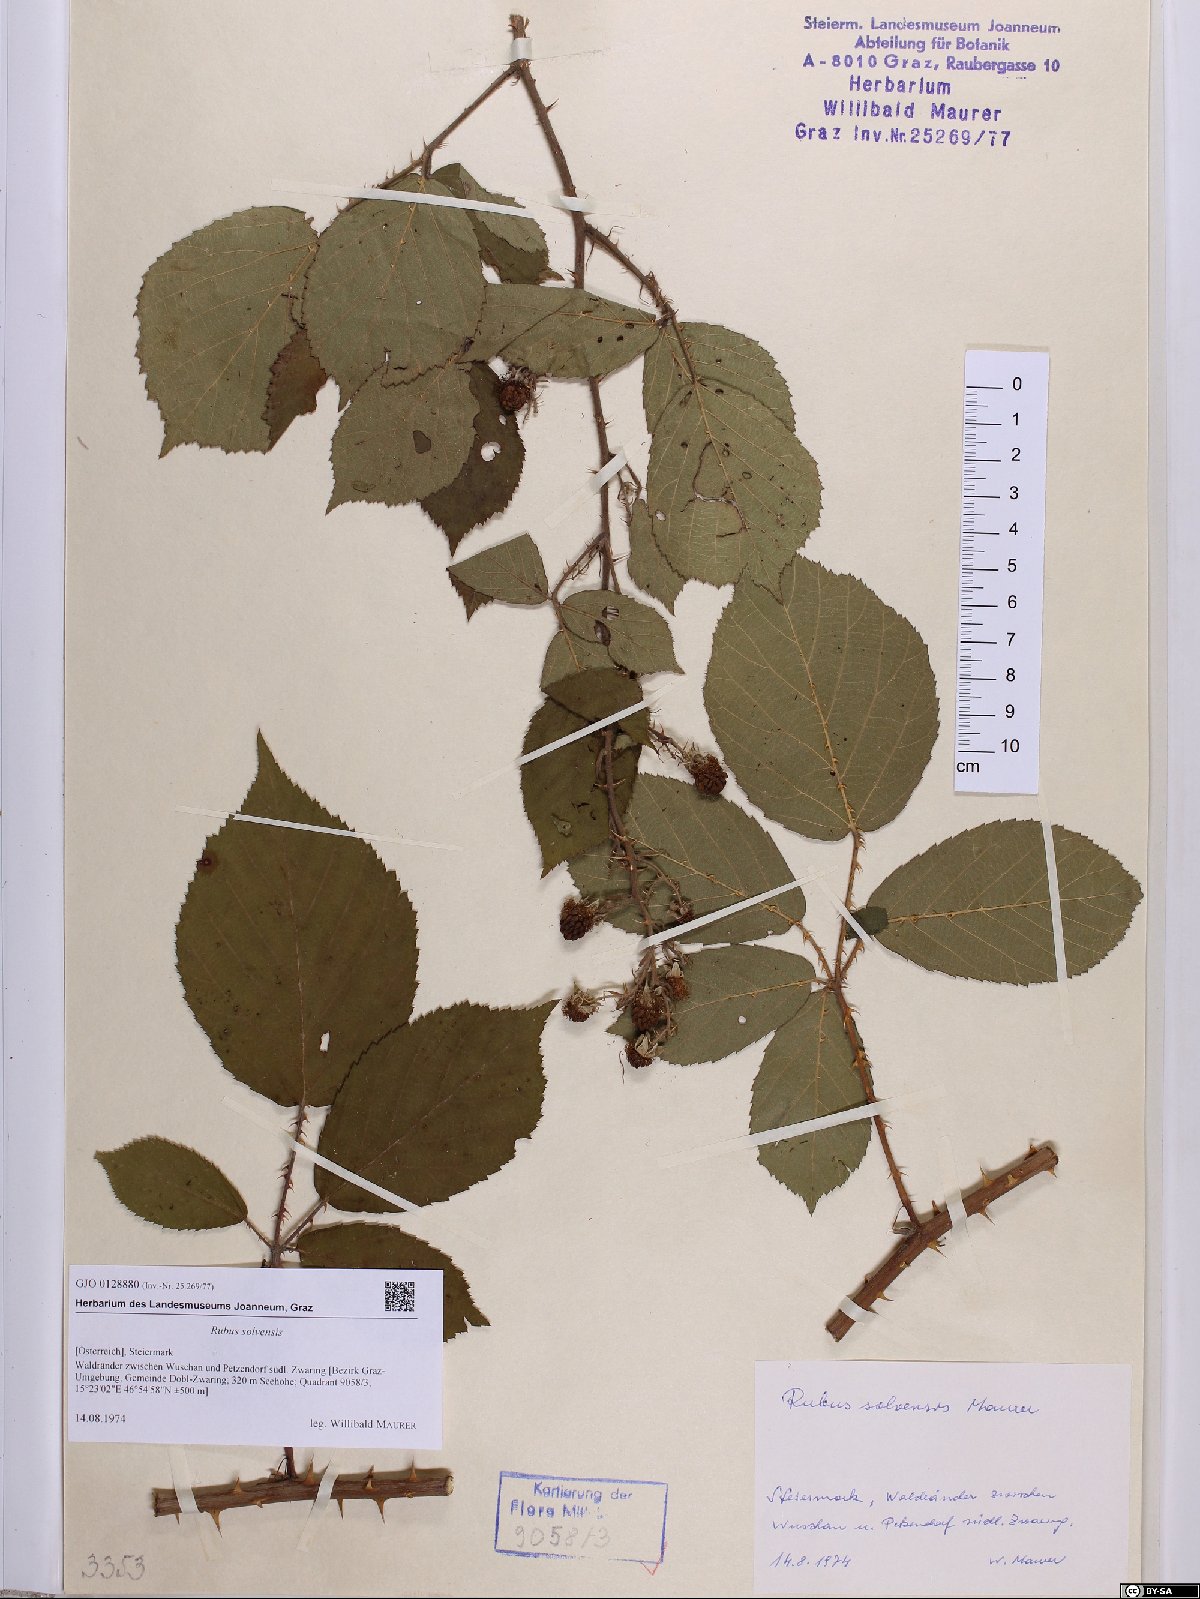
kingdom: Plantae
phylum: Tracheophyta
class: Magnoliopsida
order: Rosales
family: Rosaceae
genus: Rubus
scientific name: Rubus solvensis
